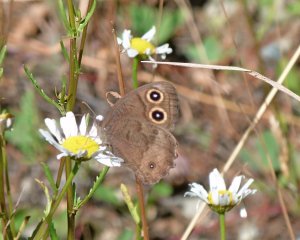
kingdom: Animalia
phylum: Arthropoda
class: Insecta
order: Lepidoptera
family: Nymphalidae
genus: Cercyonis
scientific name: Cercyonis pegala
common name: Common Wood-Nymph
